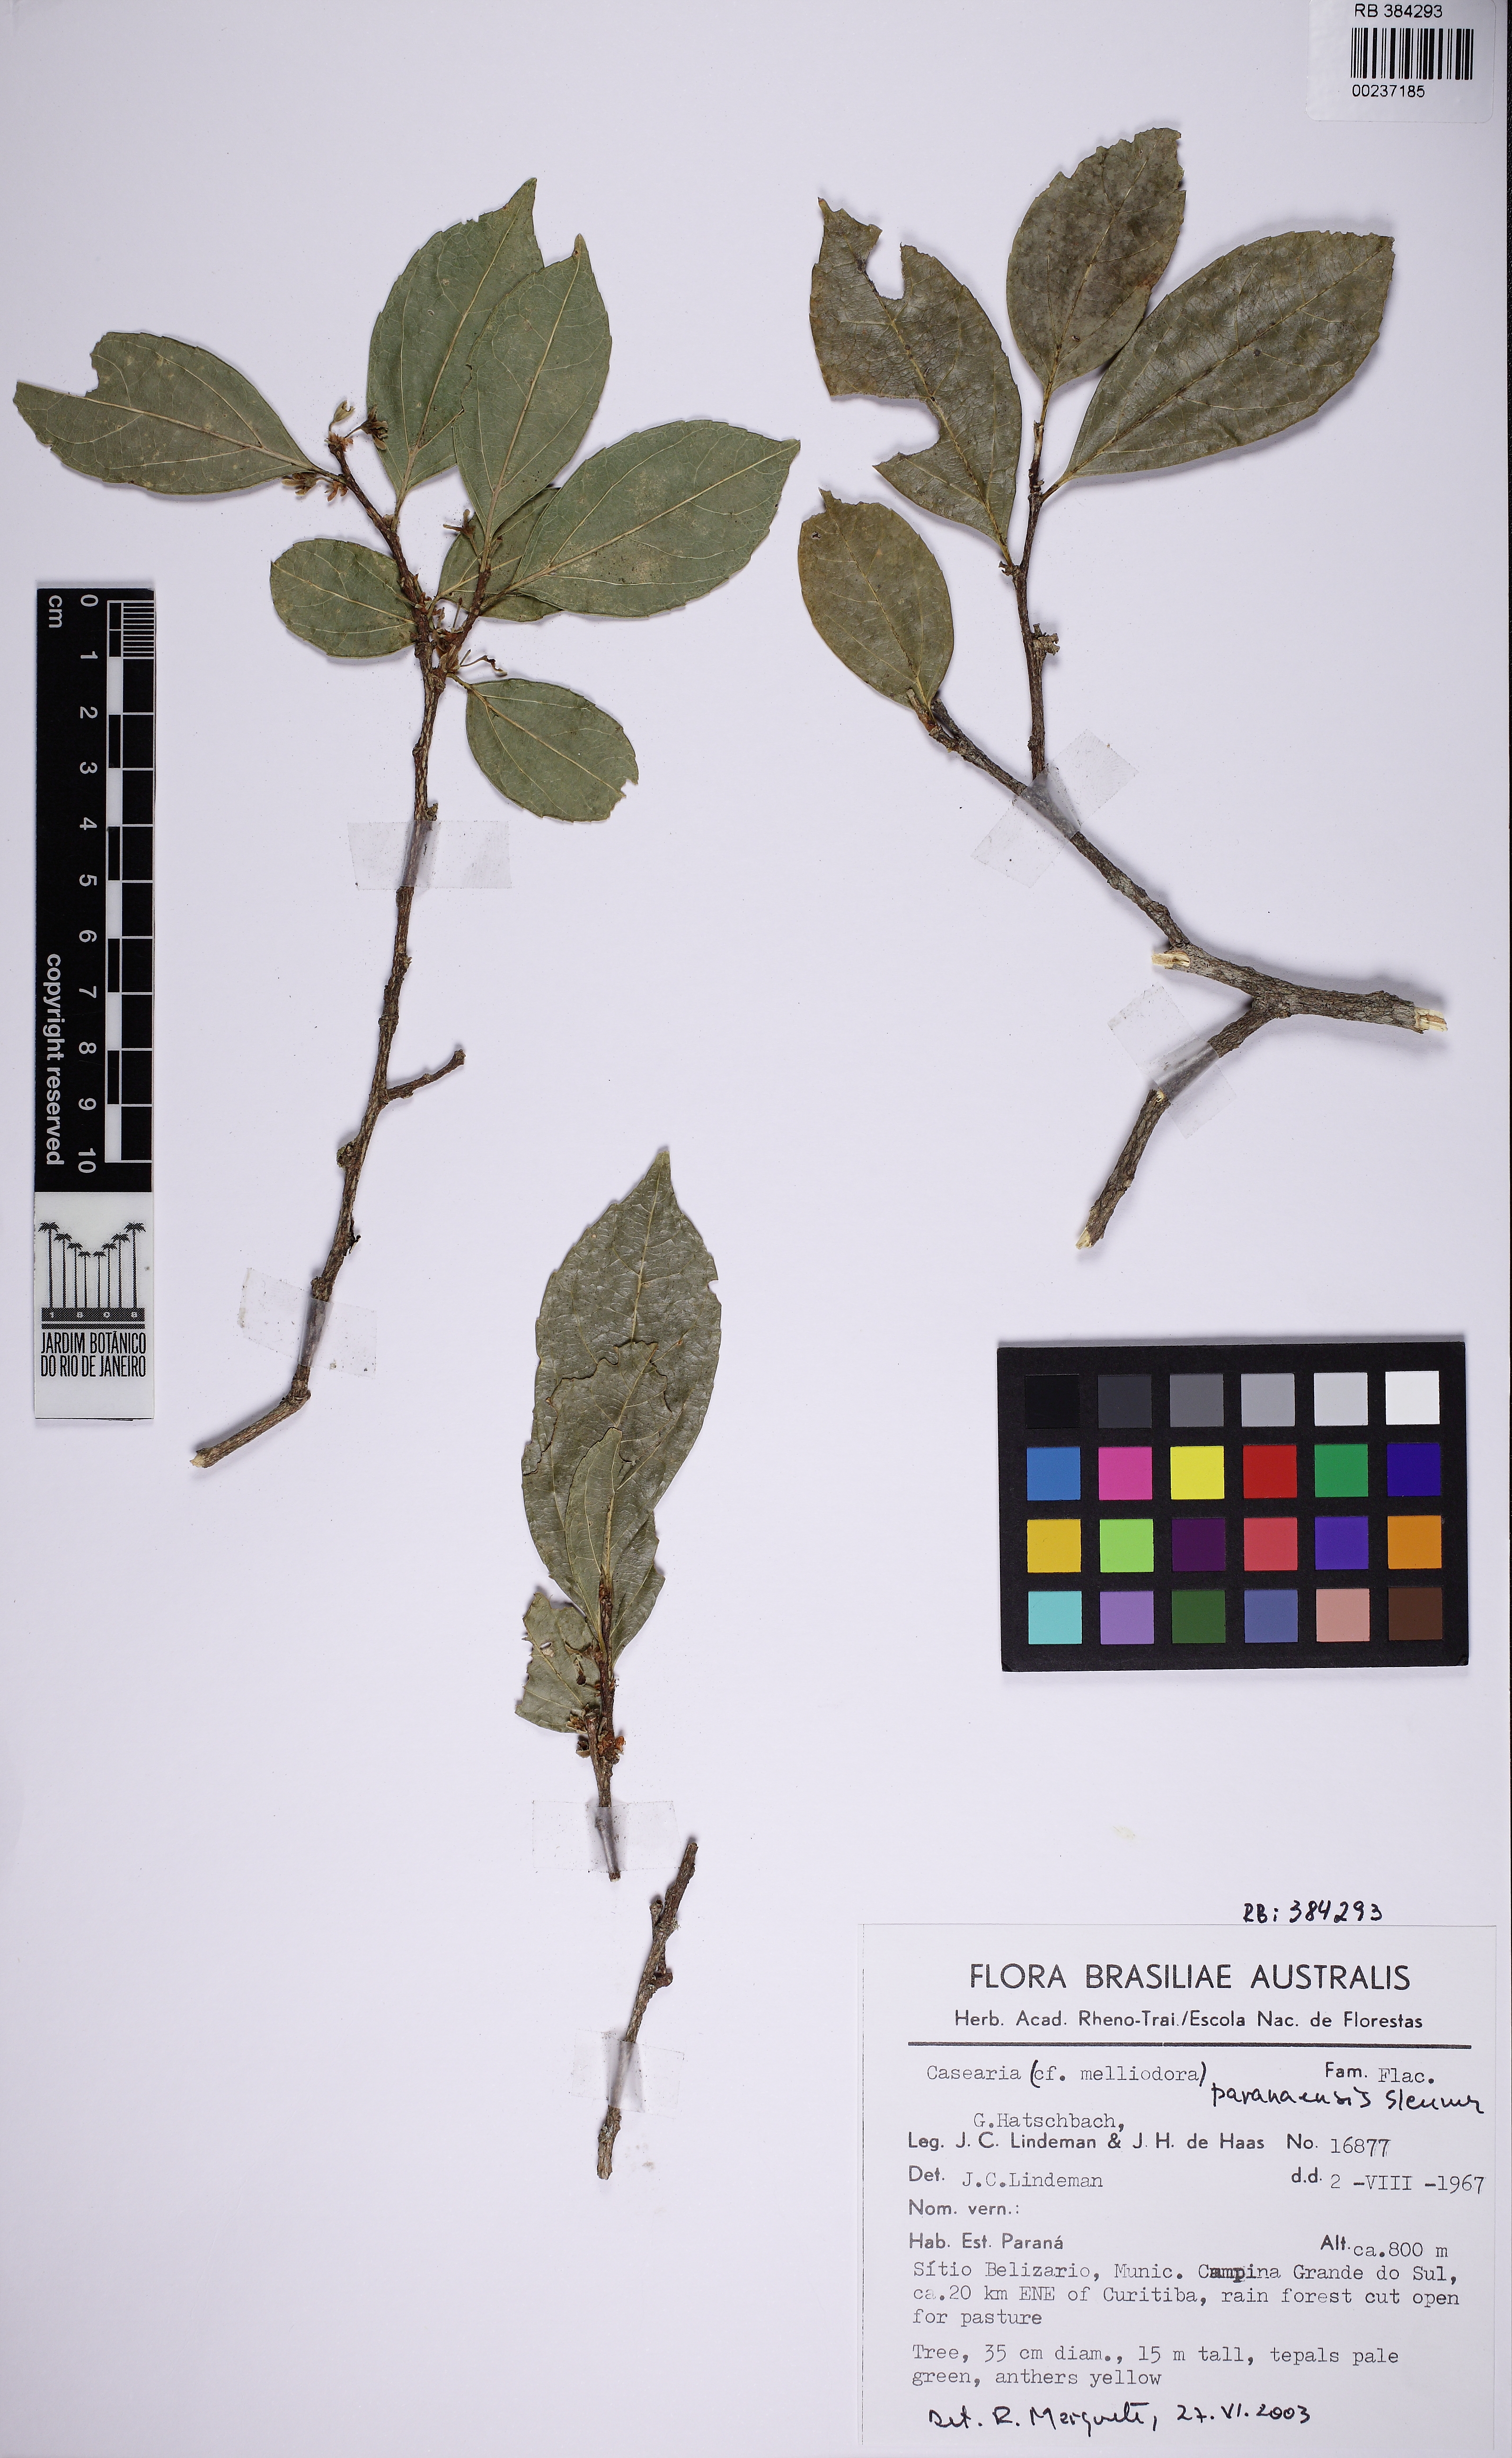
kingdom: Plantae
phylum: Tracheophyta
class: Magnoliopsida
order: Malpighiales
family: Salicaceae
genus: Casearia
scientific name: Casearia paranaensis
